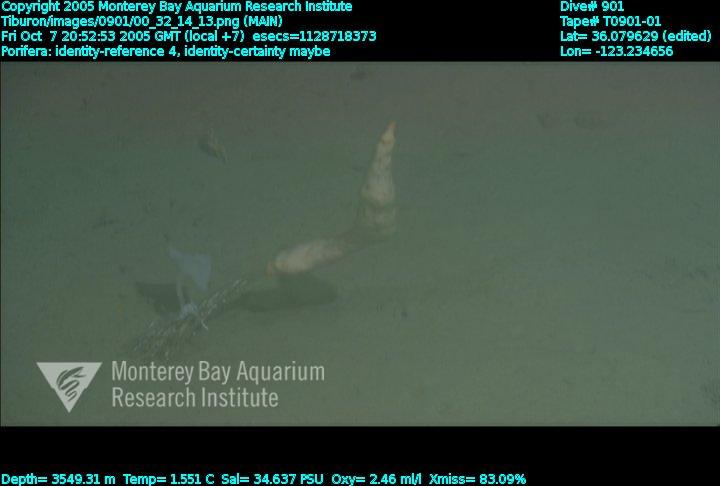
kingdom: Animalia
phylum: Porifera
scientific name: Porifera
